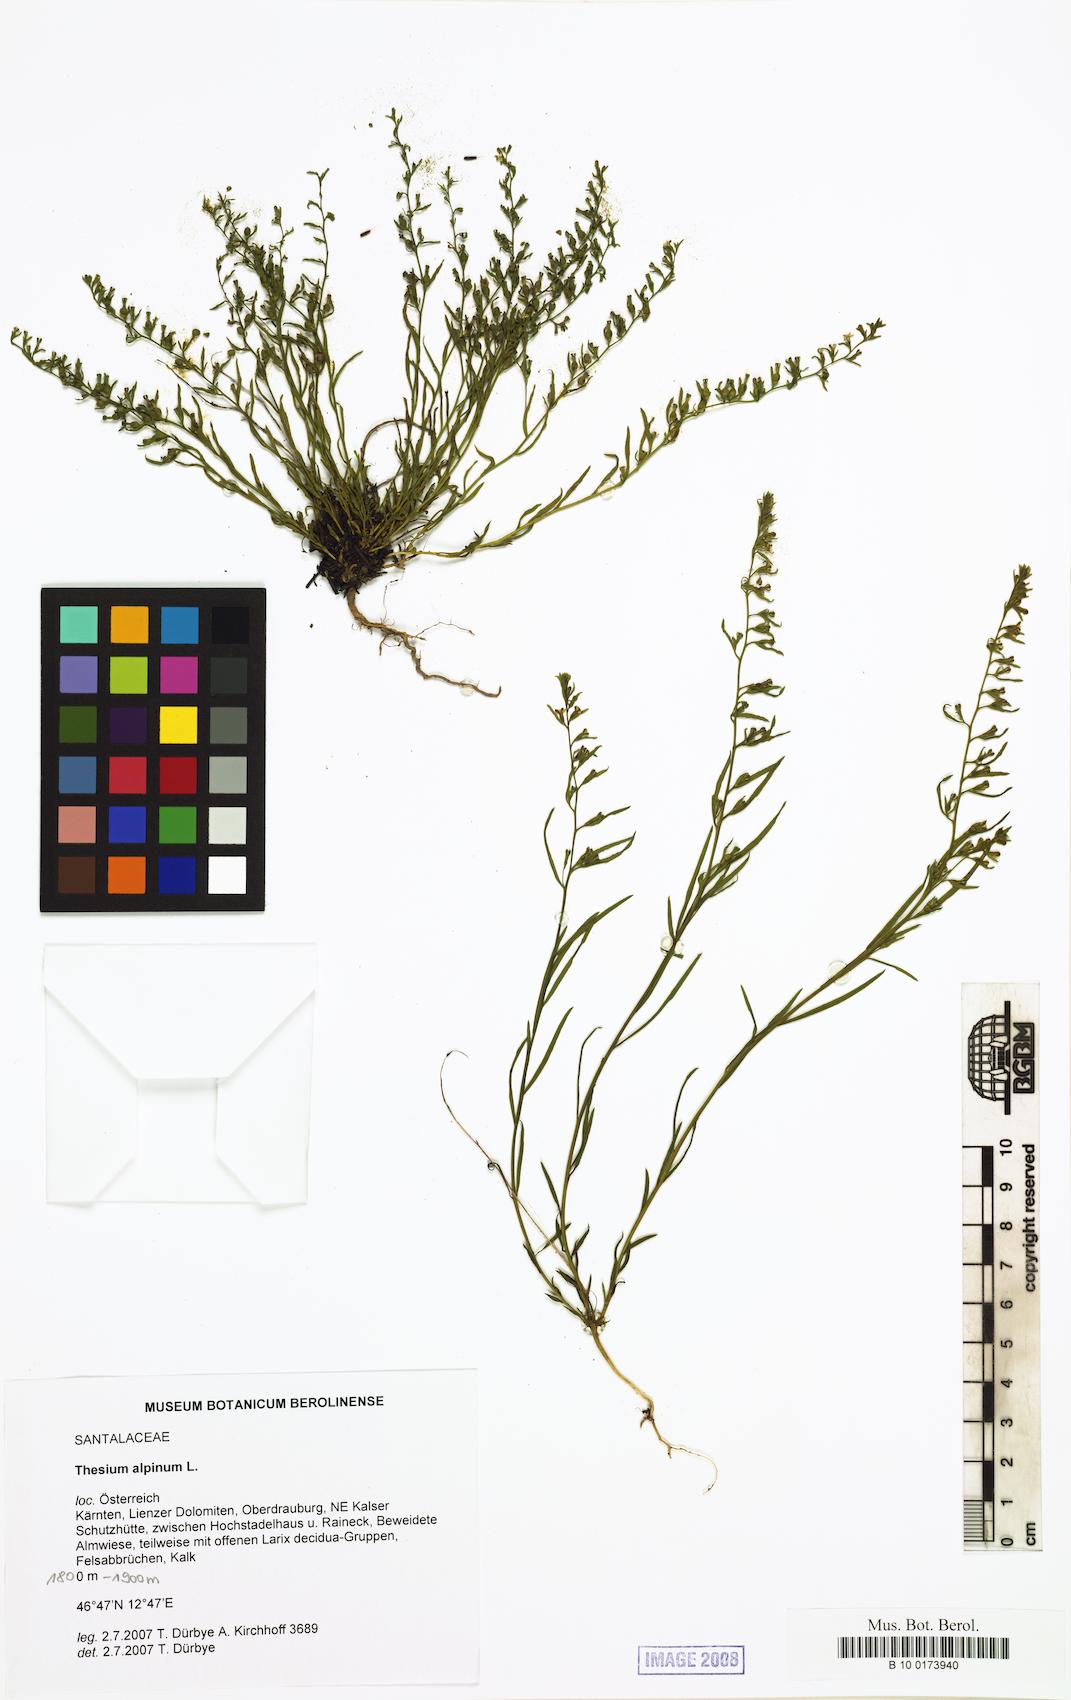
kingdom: Plantae
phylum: Tracheophyta
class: Magnoliopsida
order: Santalales
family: Thesiaceae
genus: Thesium
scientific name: Thesium alpinum
